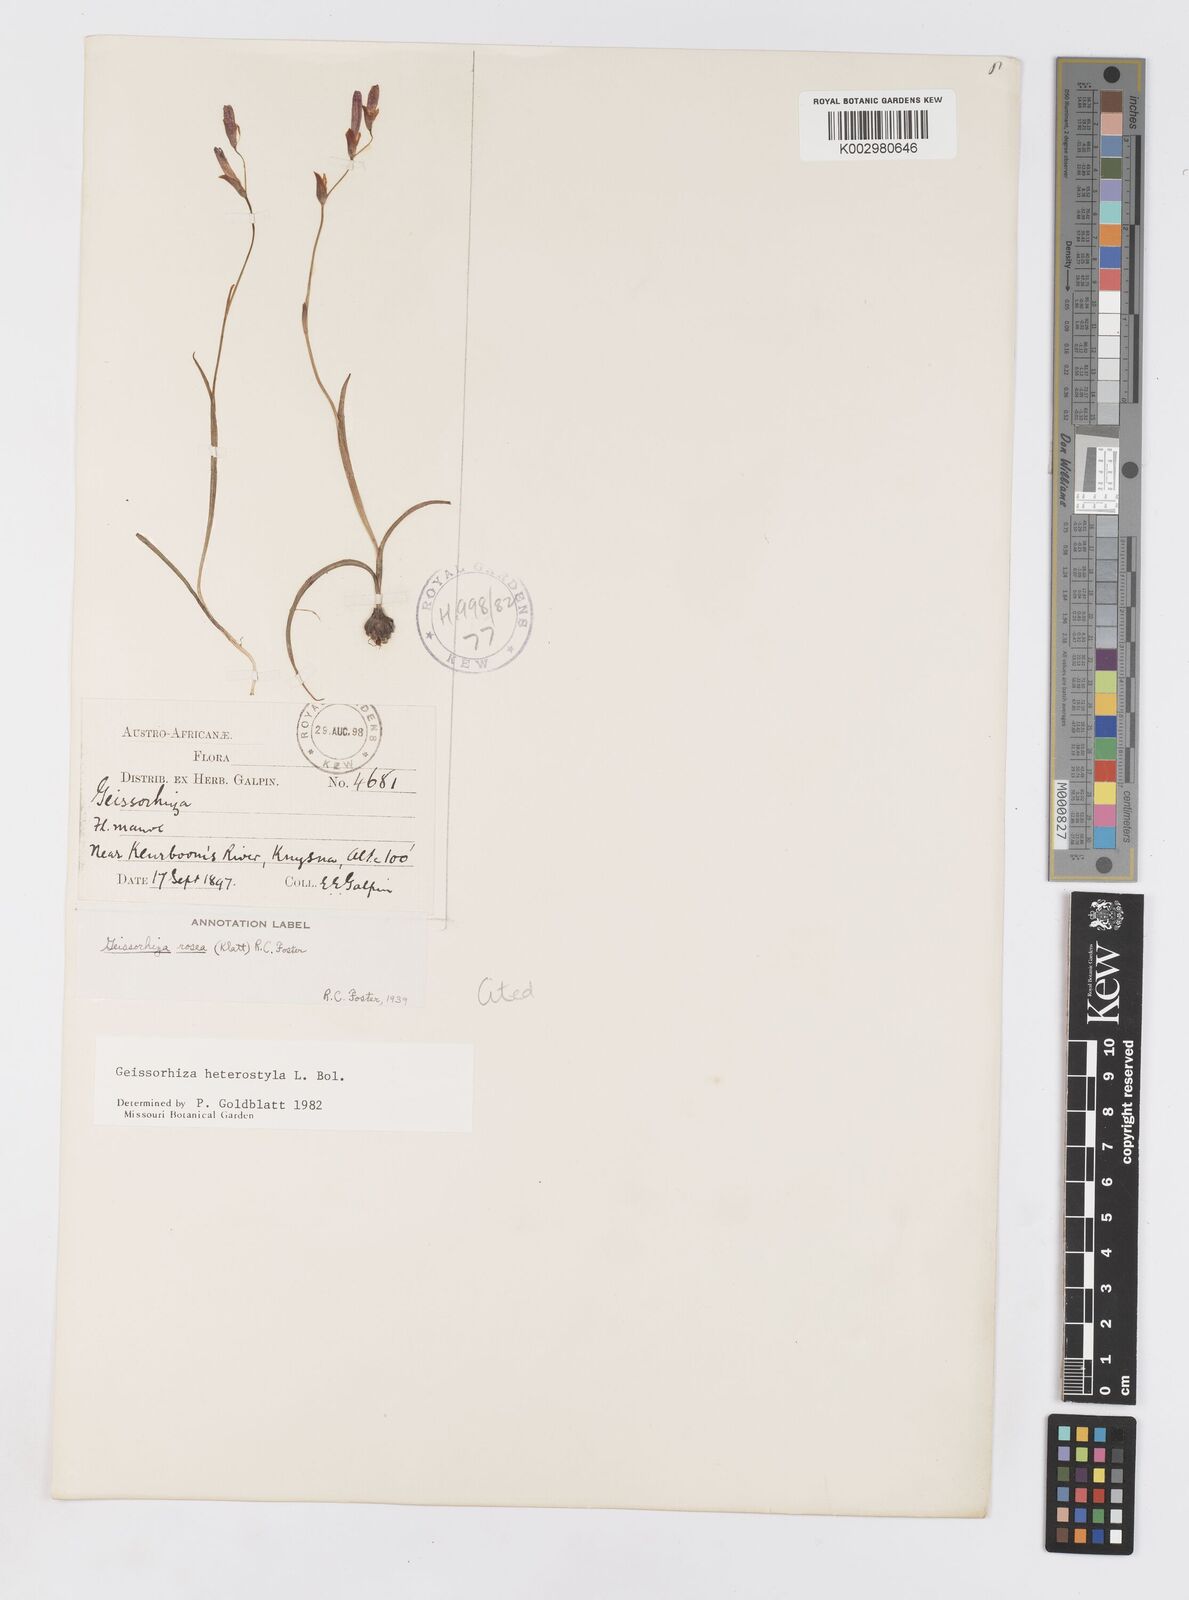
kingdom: Plantae
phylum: Tracheophyta
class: Liliopsida
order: Asparagales
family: Iridaceae
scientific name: Iridaceae
